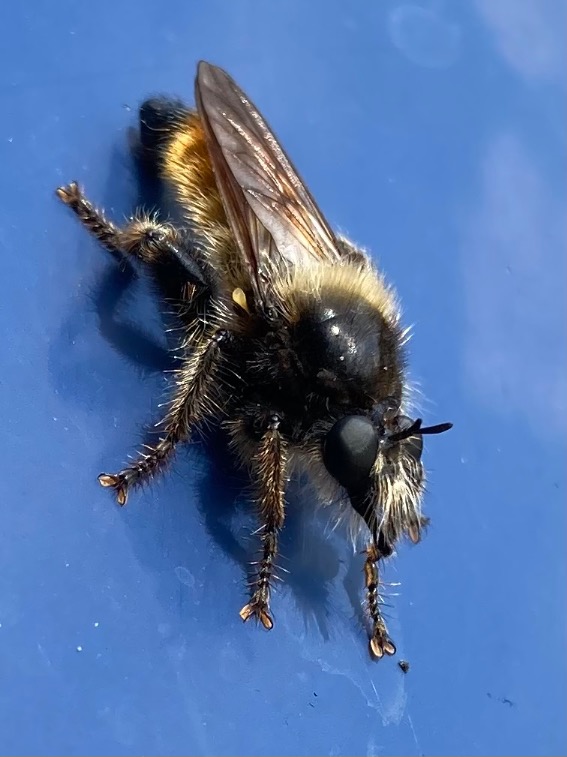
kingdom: Animalia
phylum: Arthropoda
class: Insecta
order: Diptera
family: Asilidae
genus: Laphria
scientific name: Laphria flava
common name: Gul vedrovflue
